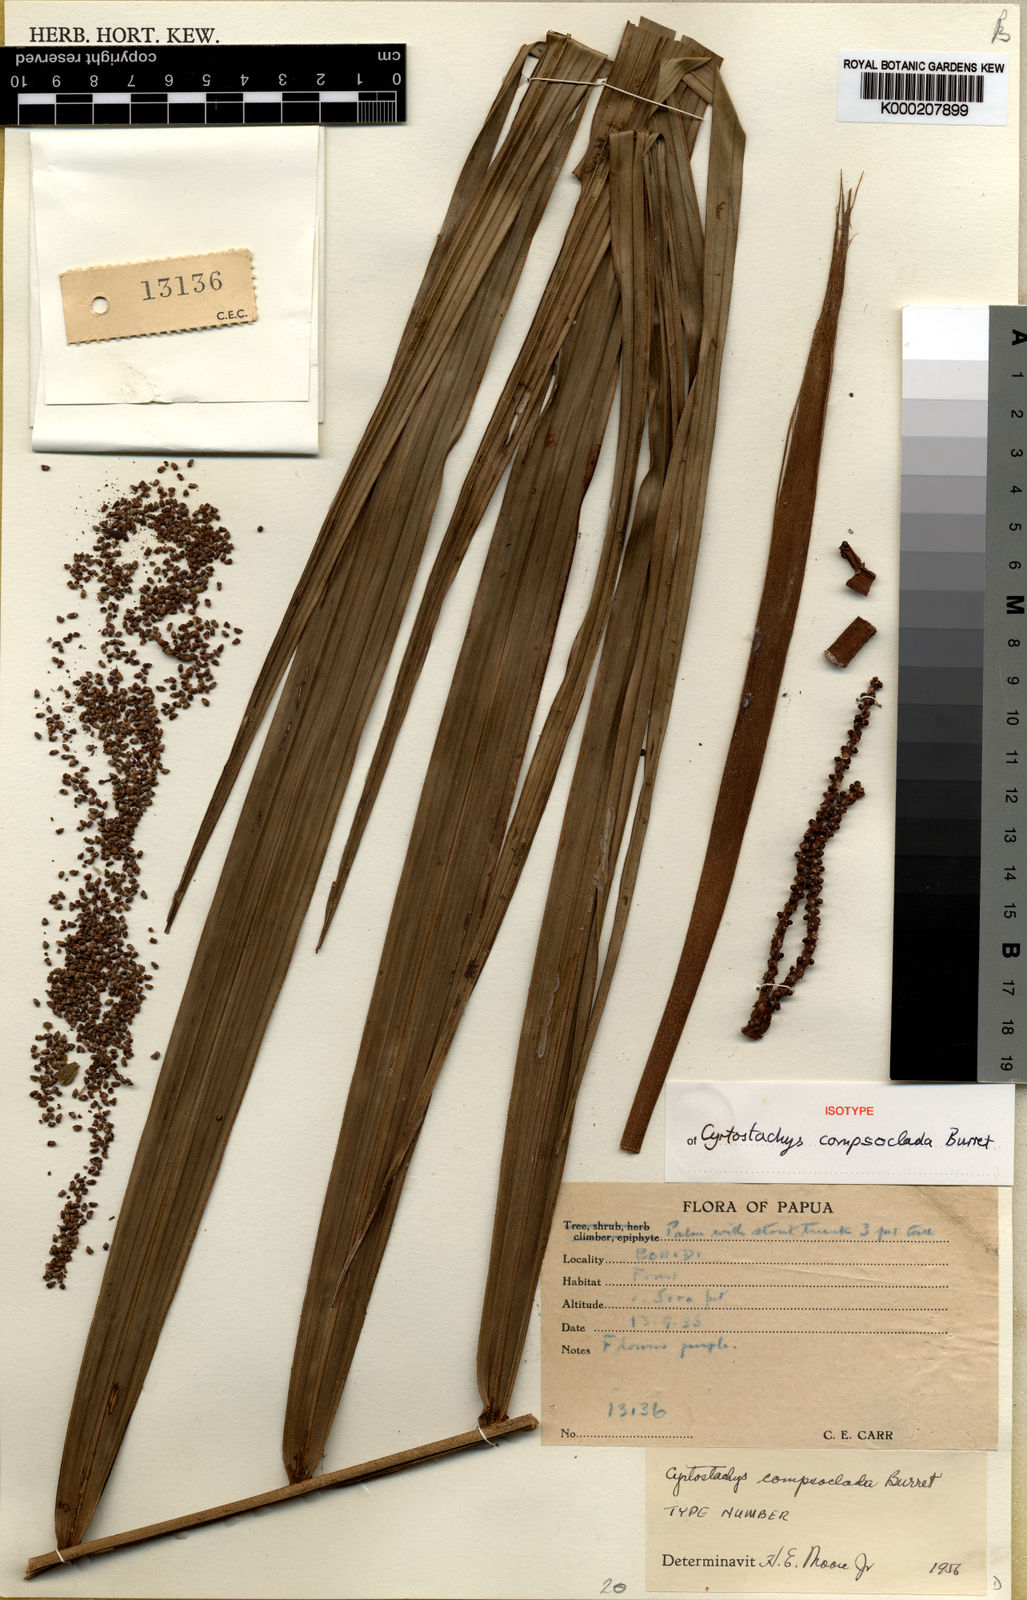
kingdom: Plantae
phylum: Tracheophyta
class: Liliopsida
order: Arecales
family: Arecaceae
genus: Heterospathe
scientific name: Heterospathe compsoclada
